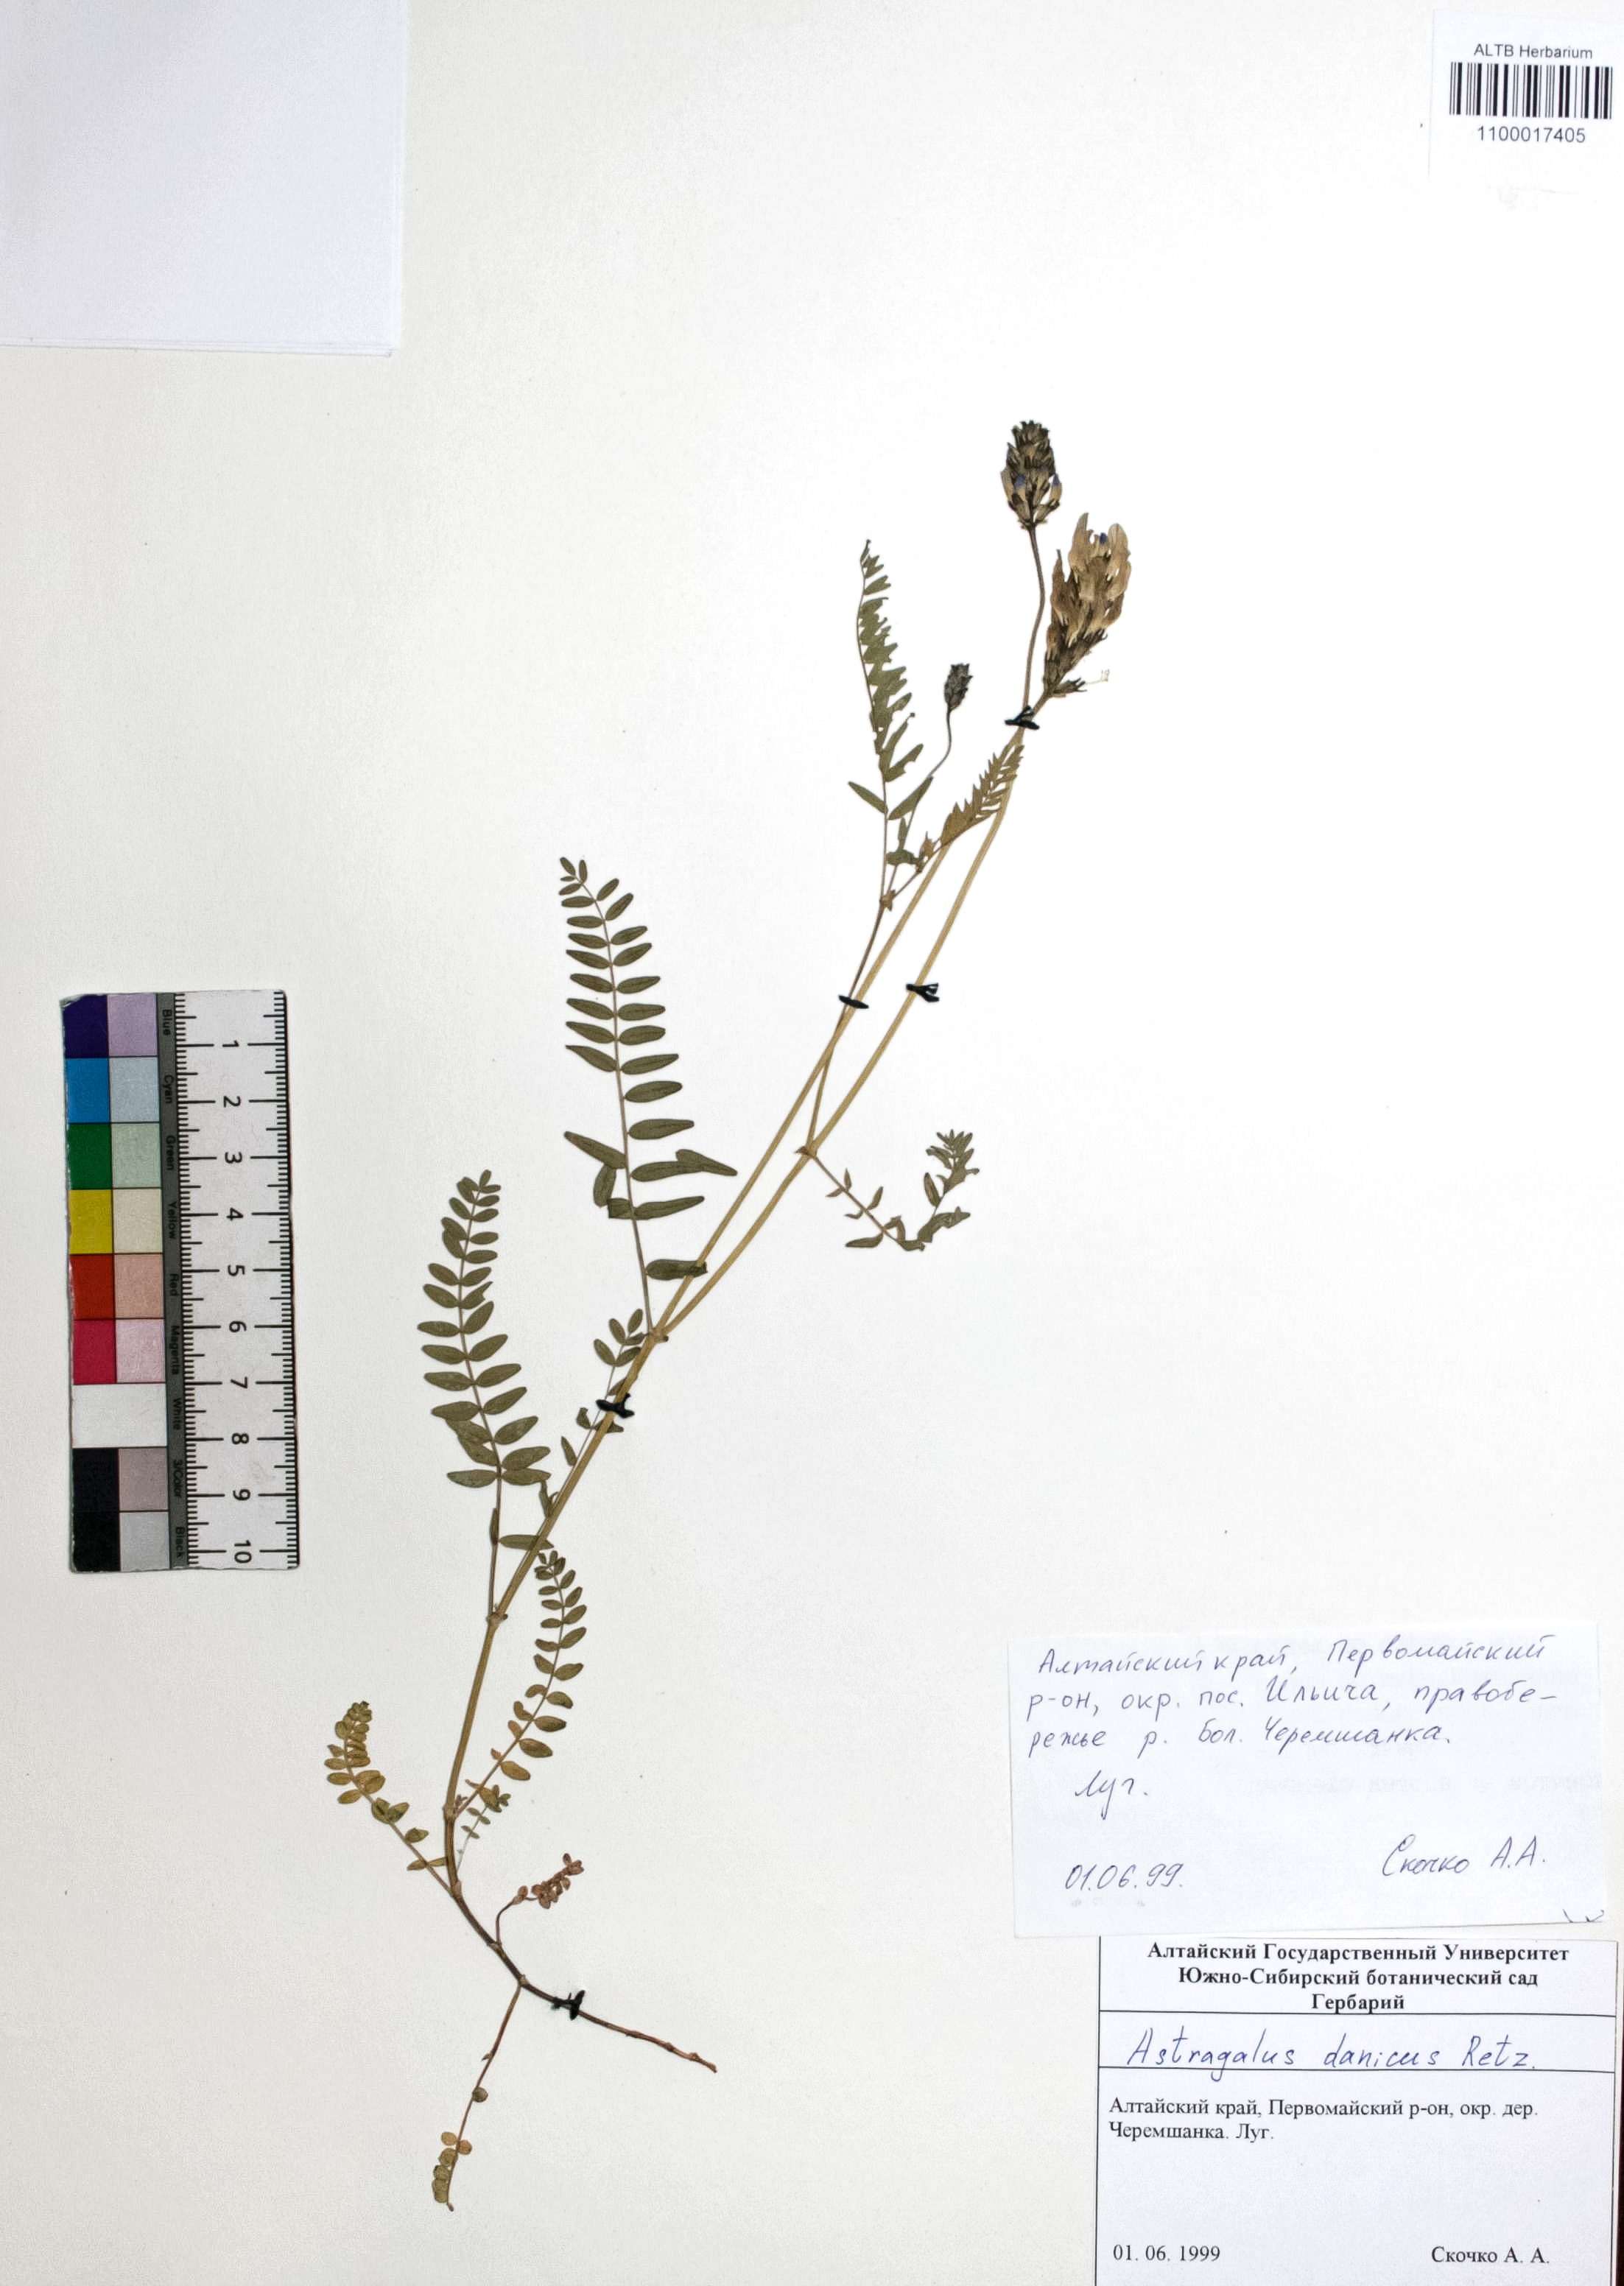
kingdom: Plantae
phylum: Tracheophyta
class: Magnoliopsida
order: Fabales
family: Fabaceae
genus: Astragalus
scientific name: Astragalus ellipsoideus
